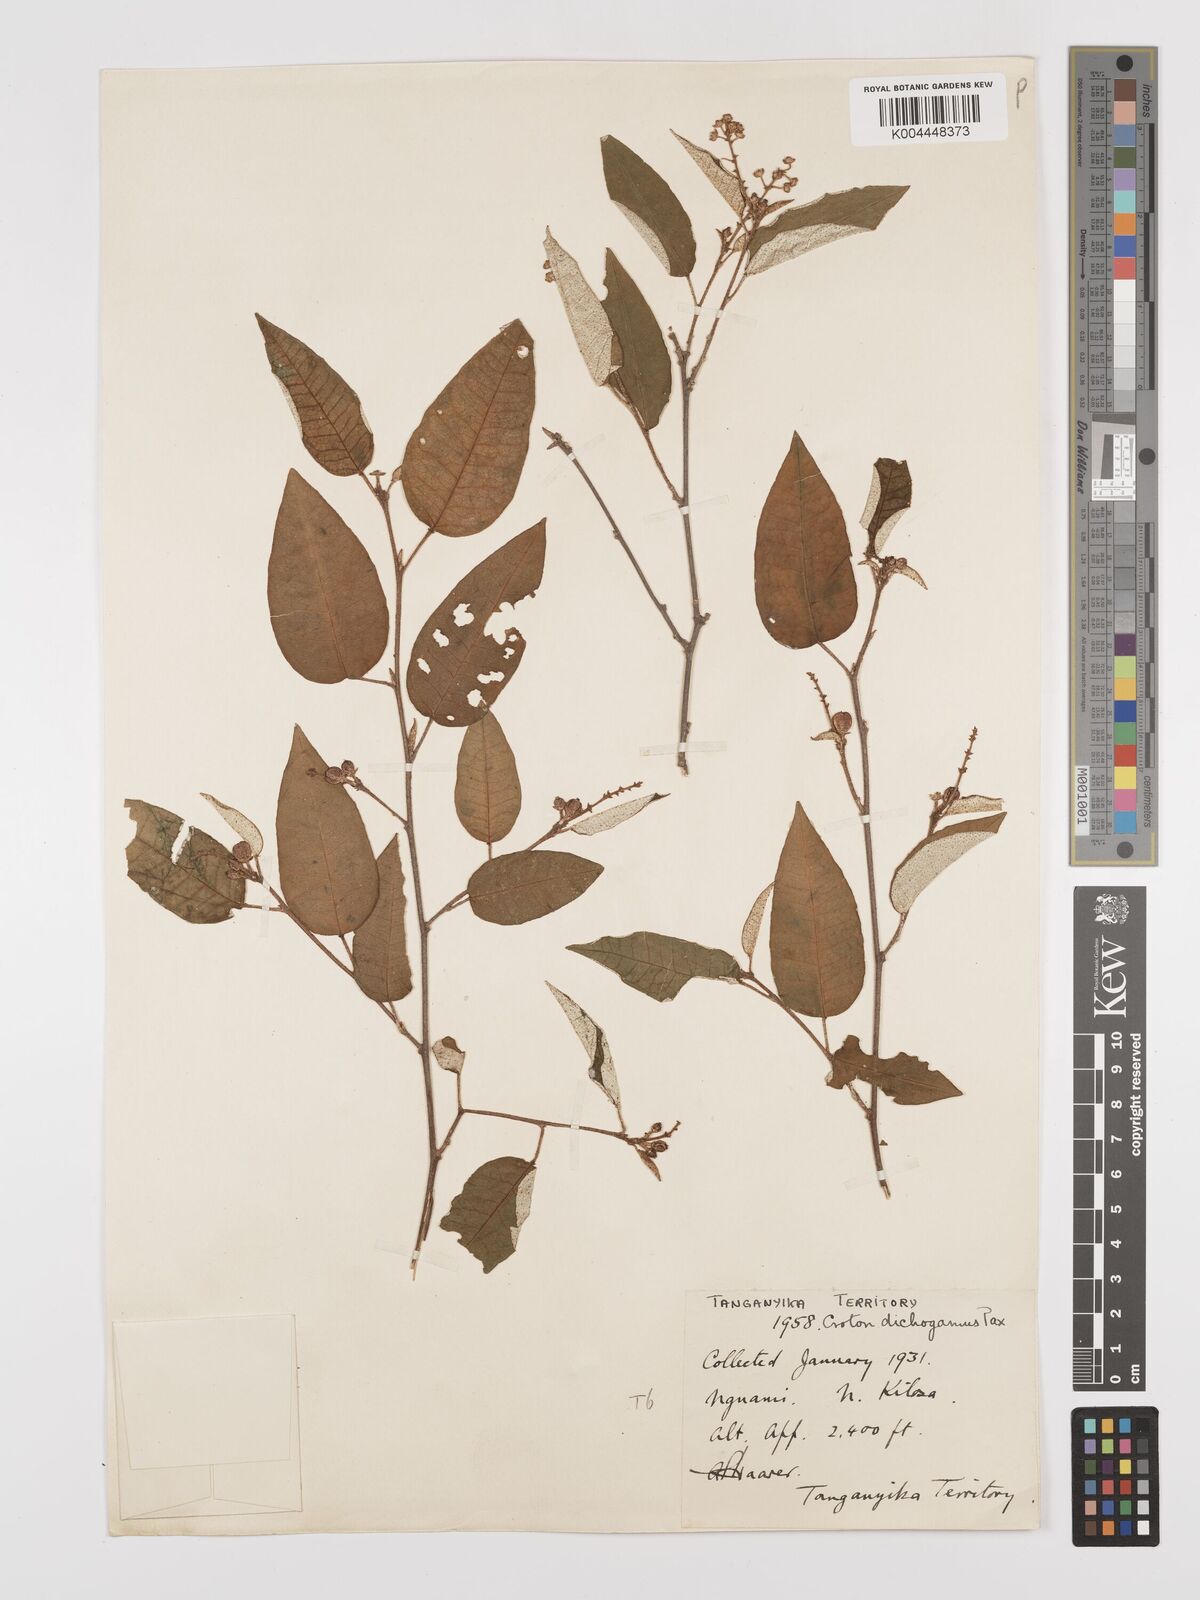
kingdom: Plantae
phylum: Tracheophyta
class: Magnoliopsida
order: Malpighiales
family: Euphorbiaceae
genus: Croton
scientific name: Croton dichogamus
